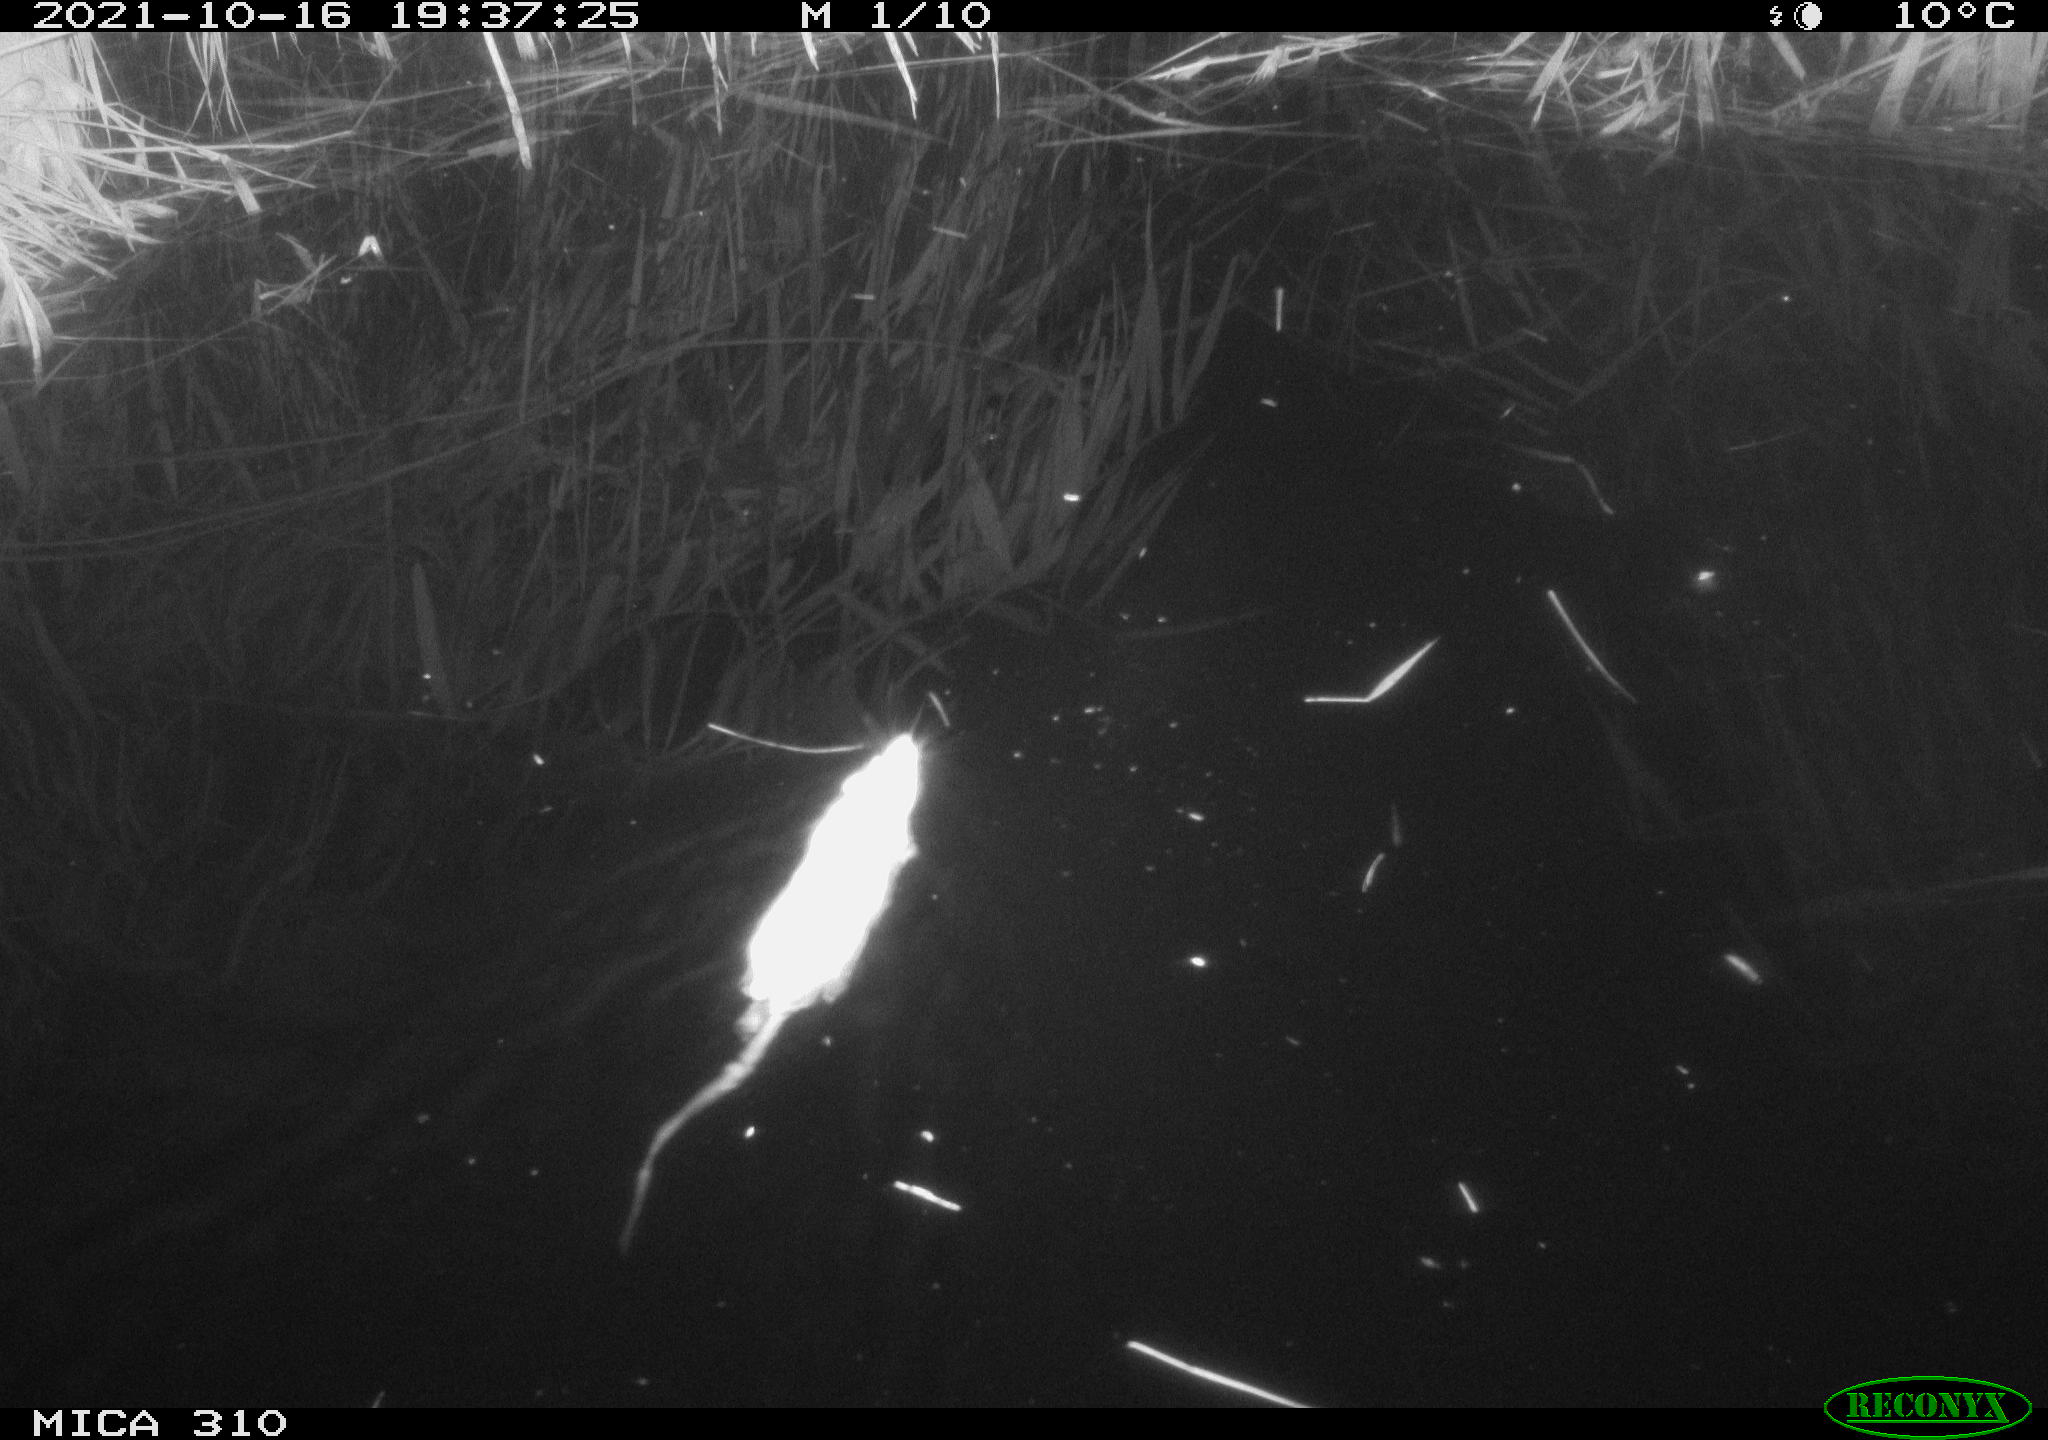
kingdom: Animalia
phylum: Chordata
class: Mammalia
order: Rodentia
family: Muridae
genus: Rattus
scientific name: Rattus norvegicus
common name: Brown rat
